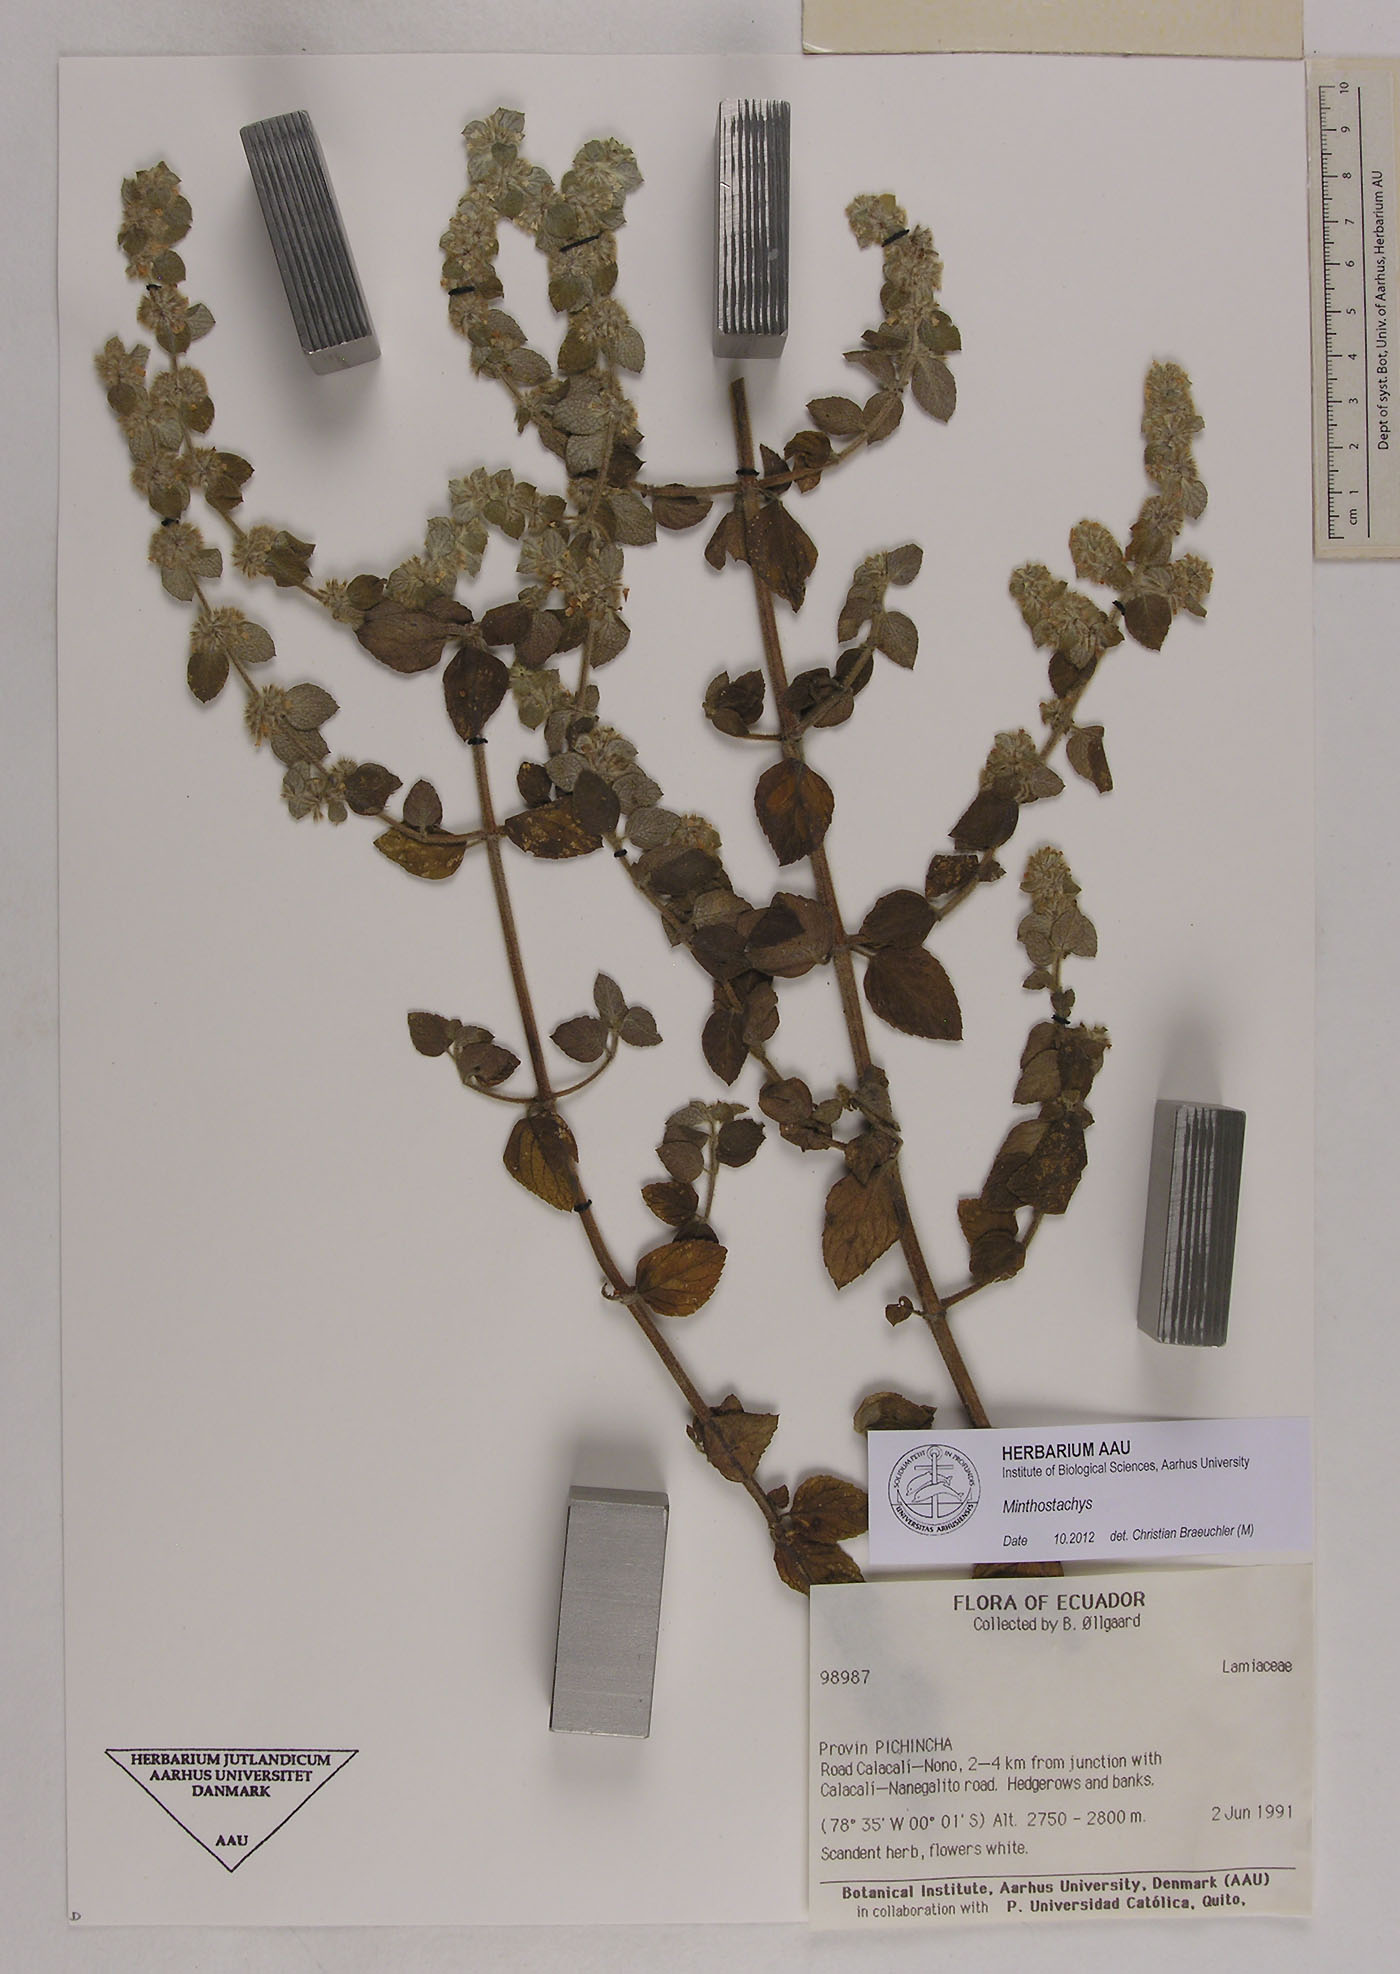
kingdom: Plantae
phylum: Tracheophyta
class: Magnoliopsida
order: Lamiales
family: Lamiaceae
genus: Minthostachys
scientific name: Minthostachys
